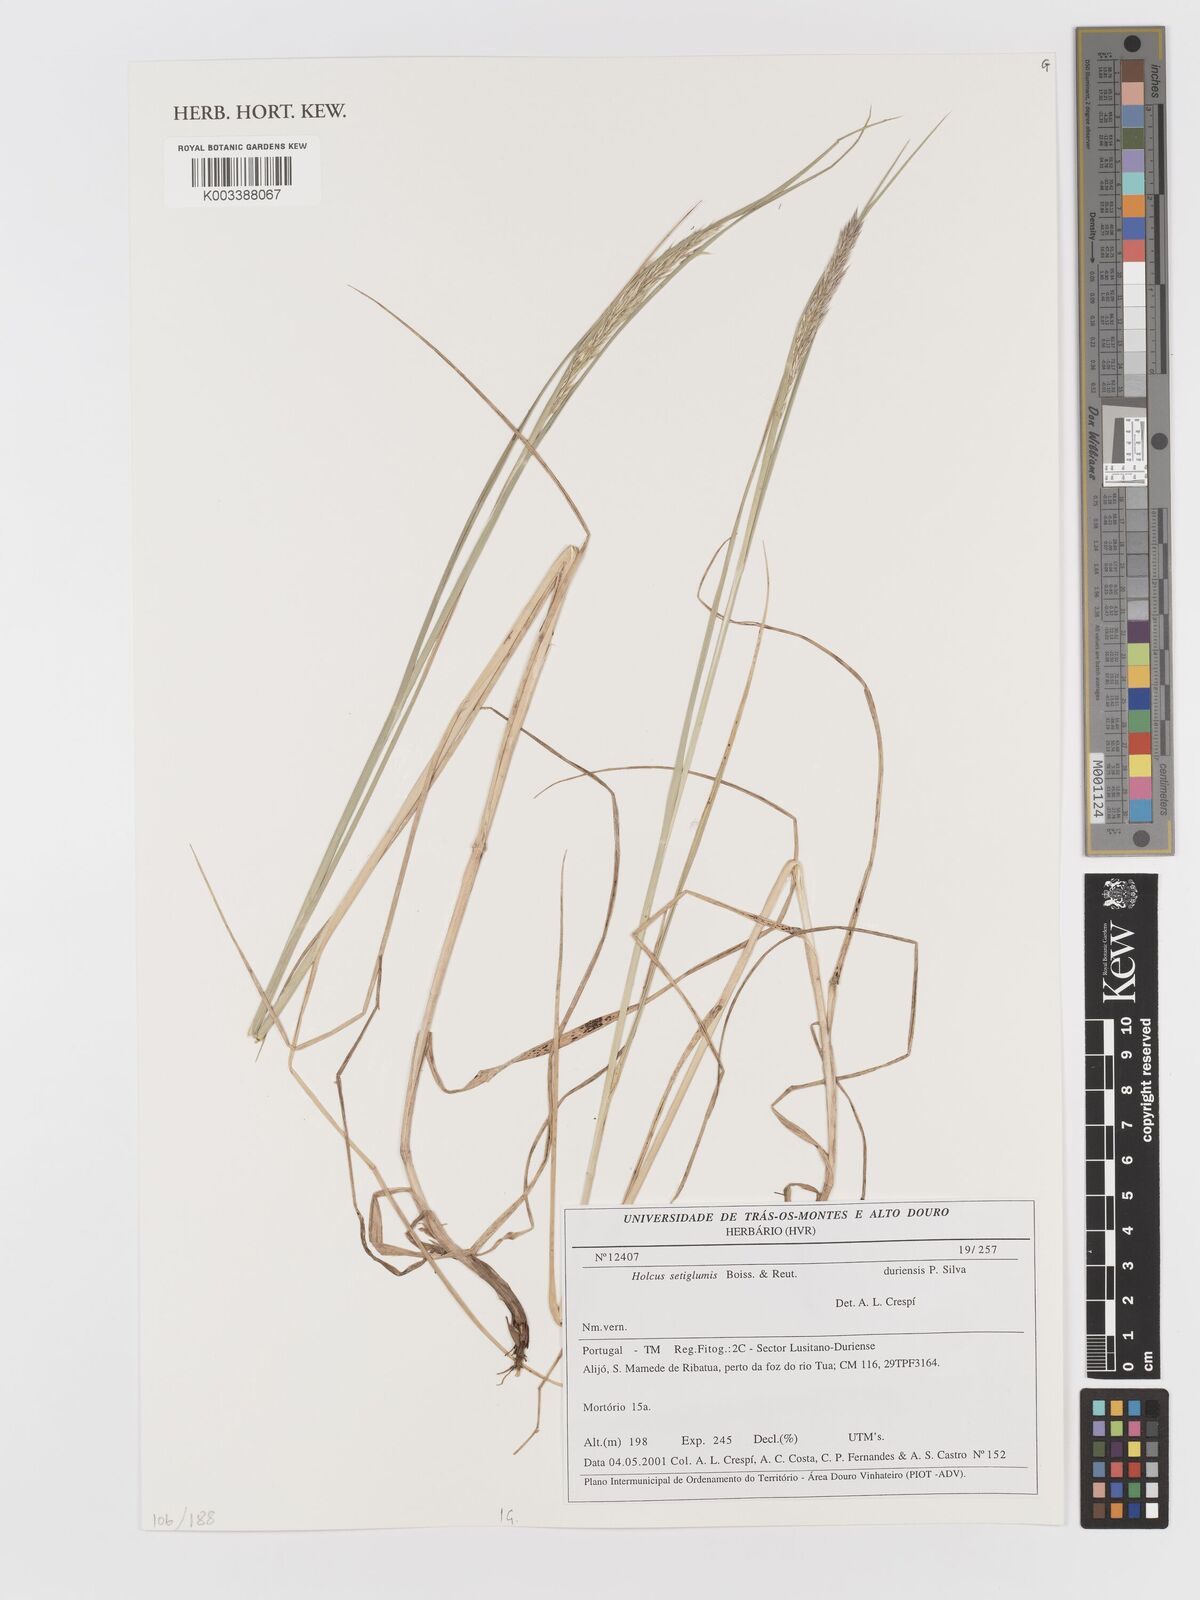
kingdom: Plantae
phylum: Tracheophyta
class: Liliopsida
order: Poales
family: Poaceae
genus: Holcus
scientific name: Holcus annuus
